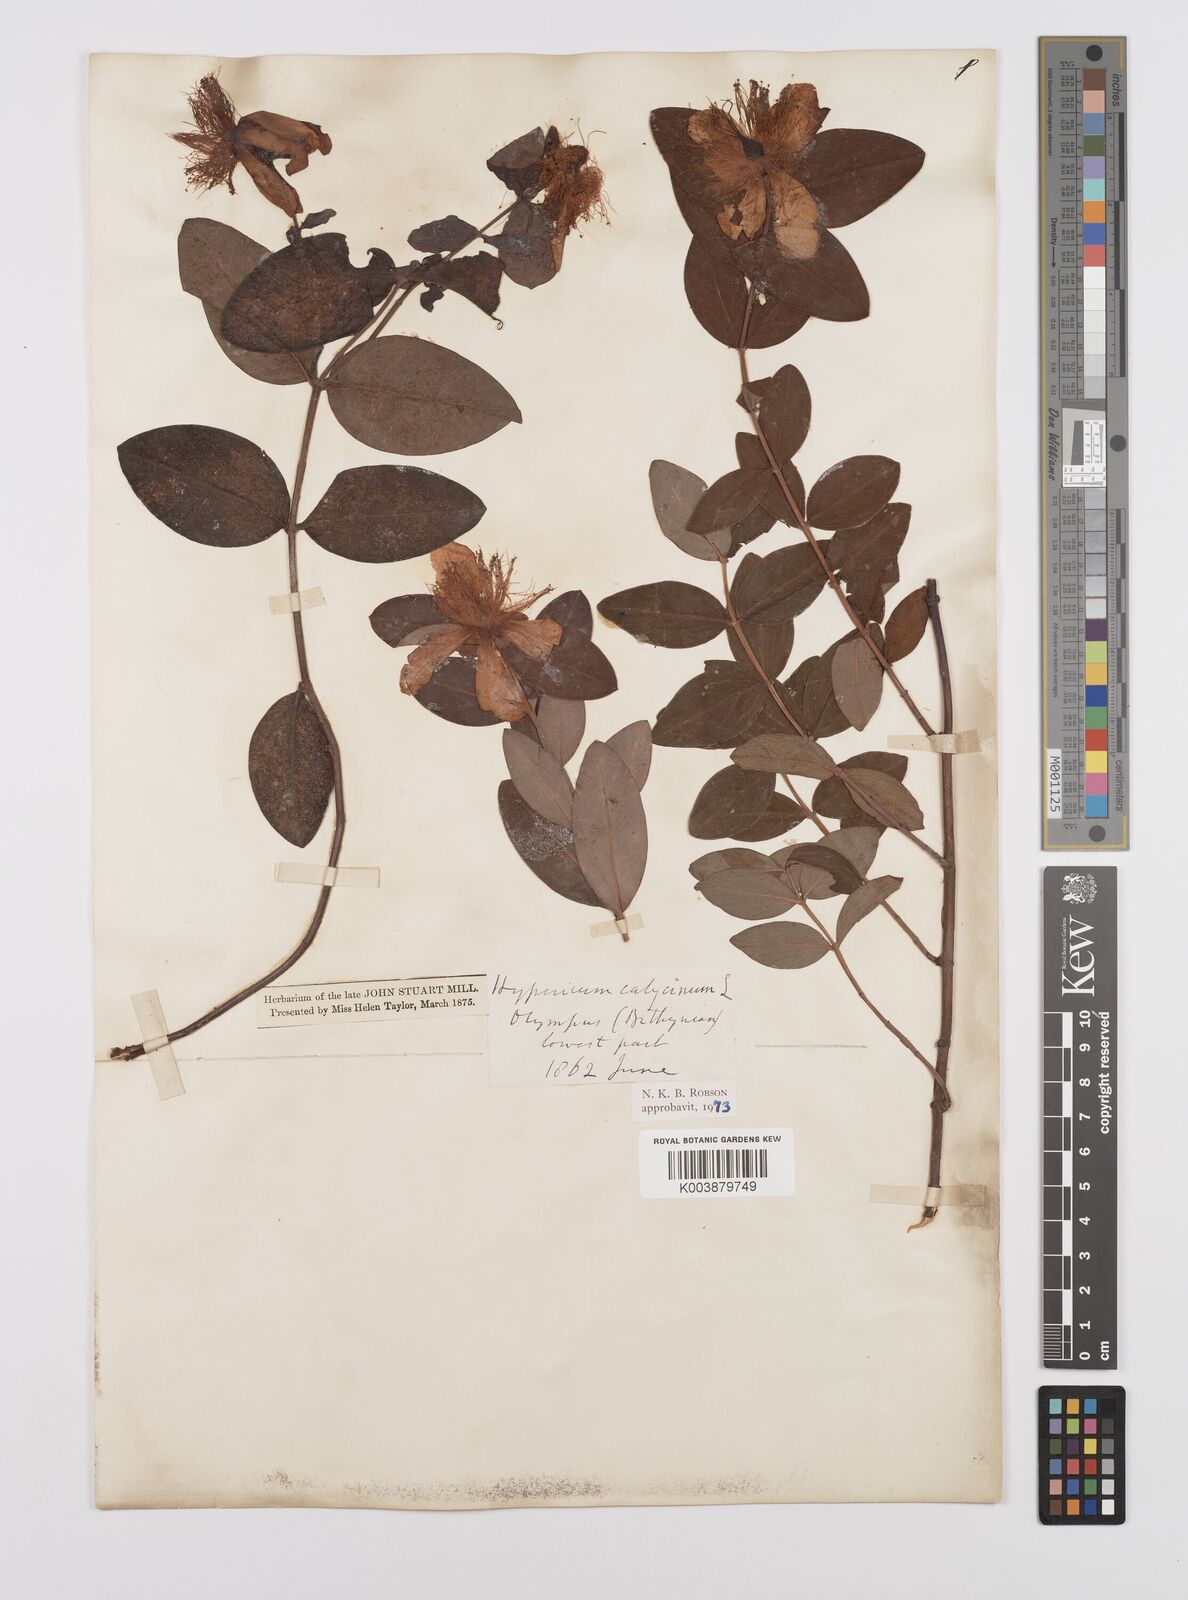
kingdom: Plantae
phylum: Tracheophyta
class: Magnoliopsida
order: Malpighiales
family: Hypericaceae
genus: Hypericum
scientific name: Hypericum calycinum
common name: Rose-of-sharon
